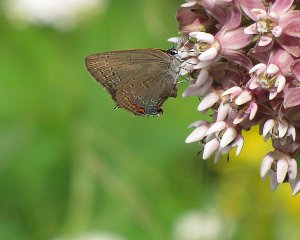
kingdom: Animalia
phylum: Arthropoda
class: Insecta
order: Lepidoptera
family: Lycaenidae
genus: Satyrium
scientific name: Satyrium edwardsii
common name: Edwards' Hairstreak
